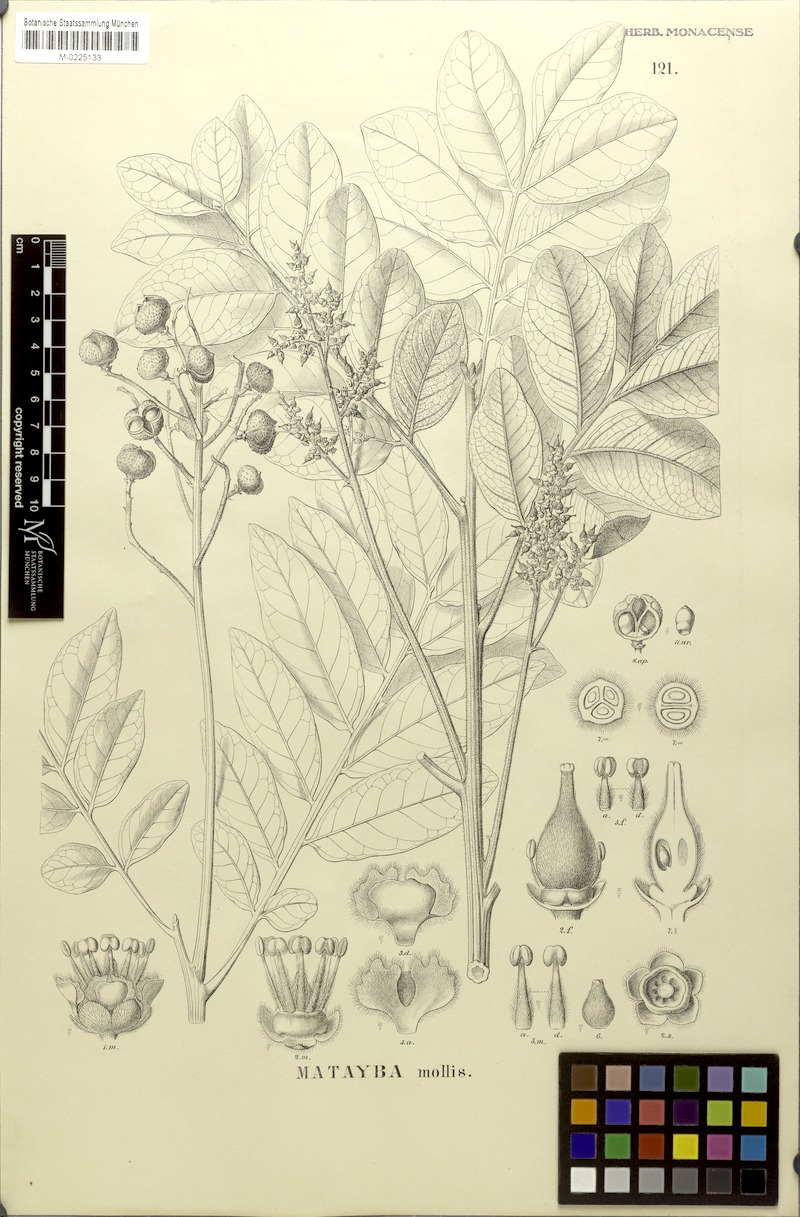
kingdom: Plantae
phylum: Tracheophyta
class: Magnoliopsida
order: Sapindales
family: Sapindaceae
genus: Matayba
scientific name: Matayba mollis
